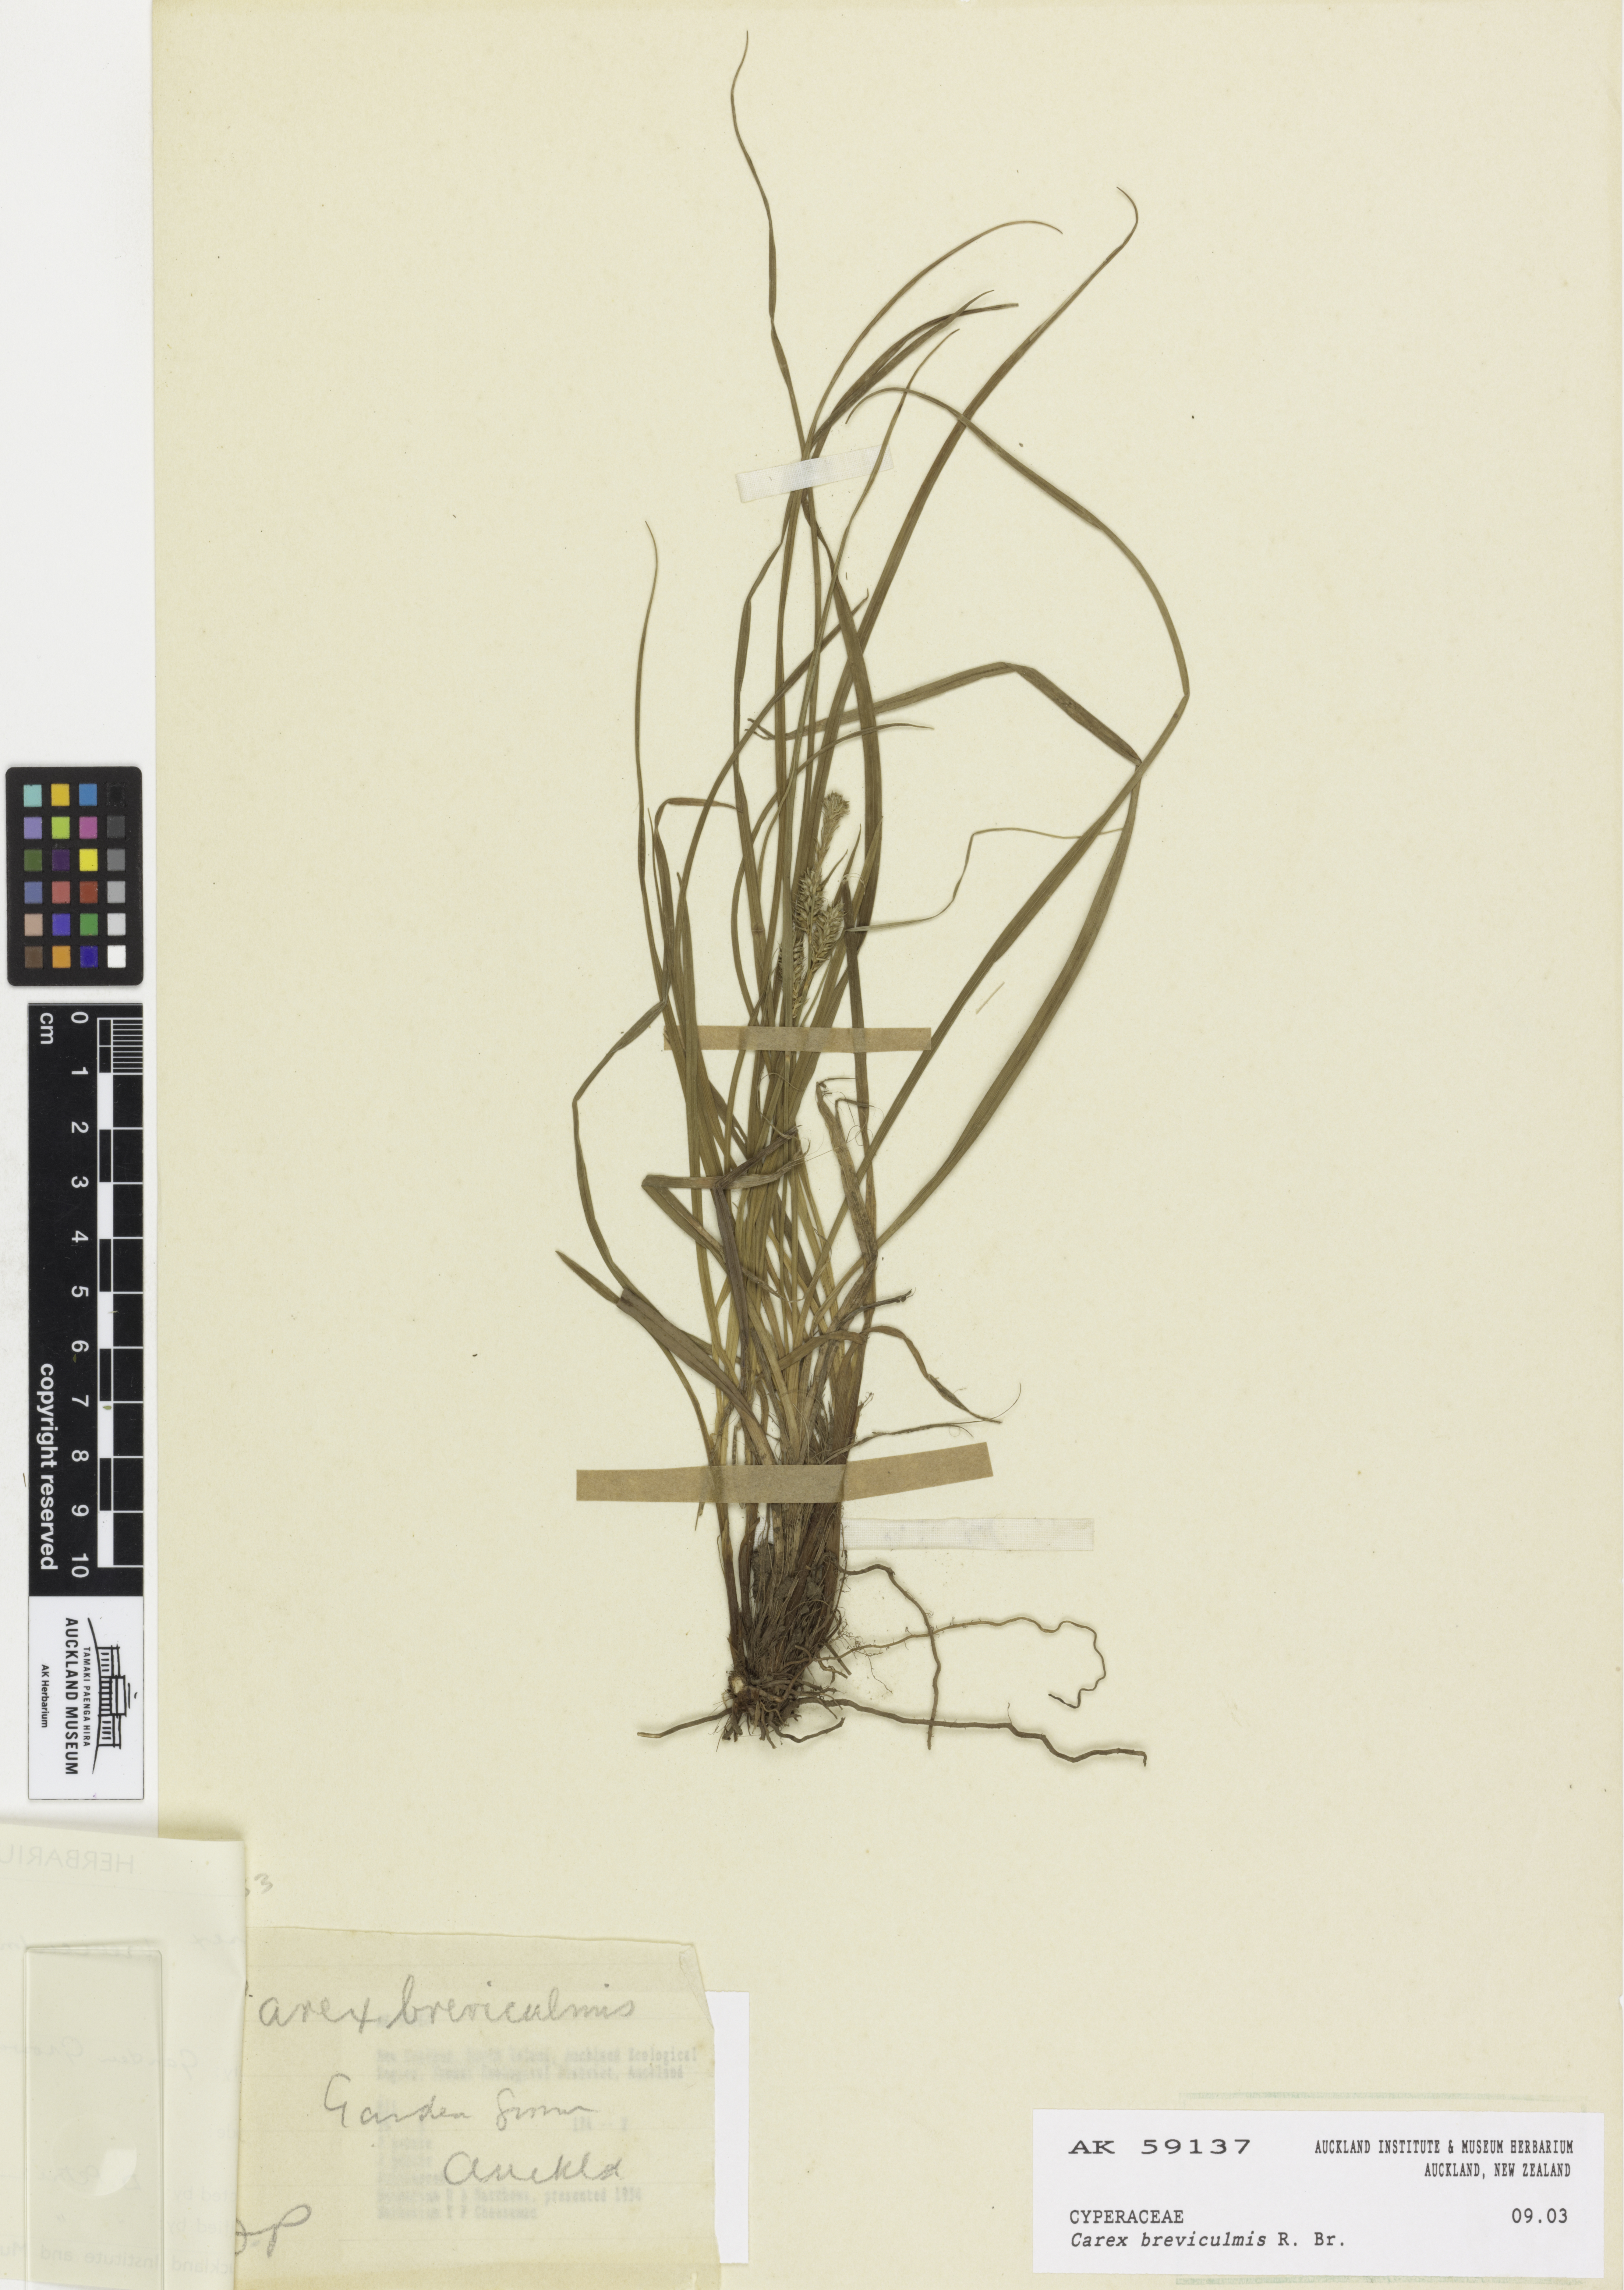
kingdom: Plantae
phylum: Tracheophyta
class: Liliopsida
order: Poales
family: Cyperaceae
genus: Carex
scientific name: Carex breviculmis
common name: Asian shortstem sedge
